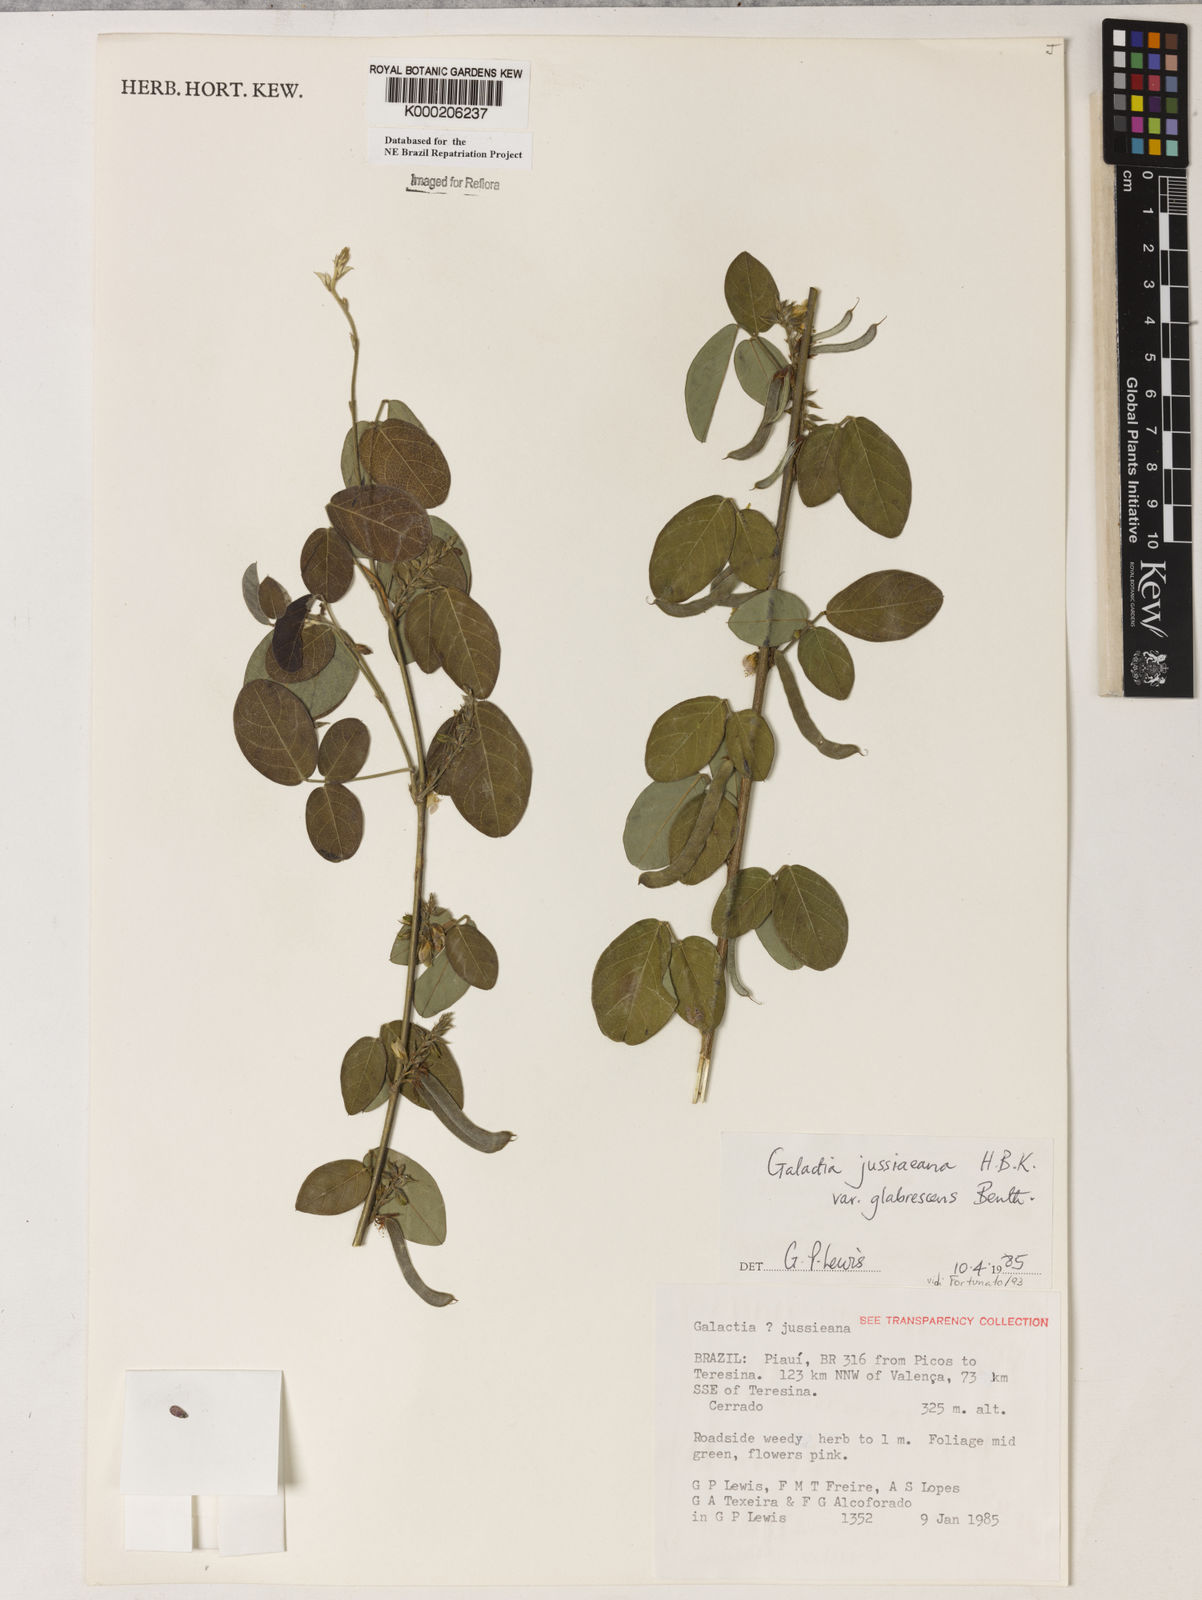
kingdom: Plantae
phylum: Tracheophyta
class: Magnoliopsida
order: Fabales
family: Fabaceae
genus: Galactia
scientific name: Galactia jussiaeana
